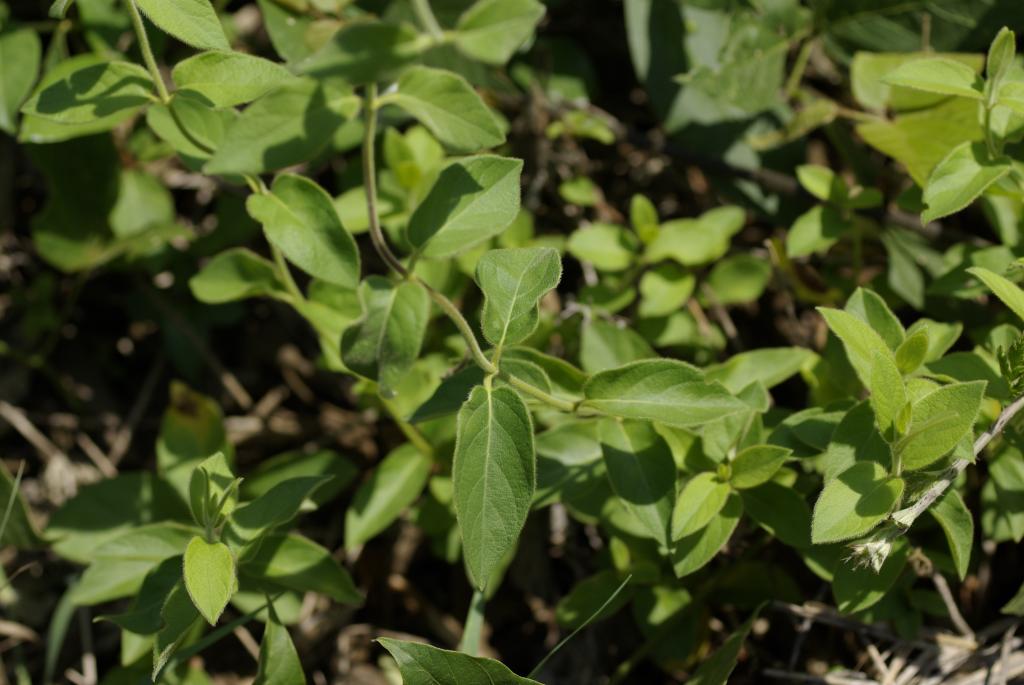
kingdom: Plantae
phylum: Tracheophyta
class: Magnoliopsida
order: Dipsacales
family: Caprifoliaceae
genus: Lonicera
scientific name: Lonicera japonica
